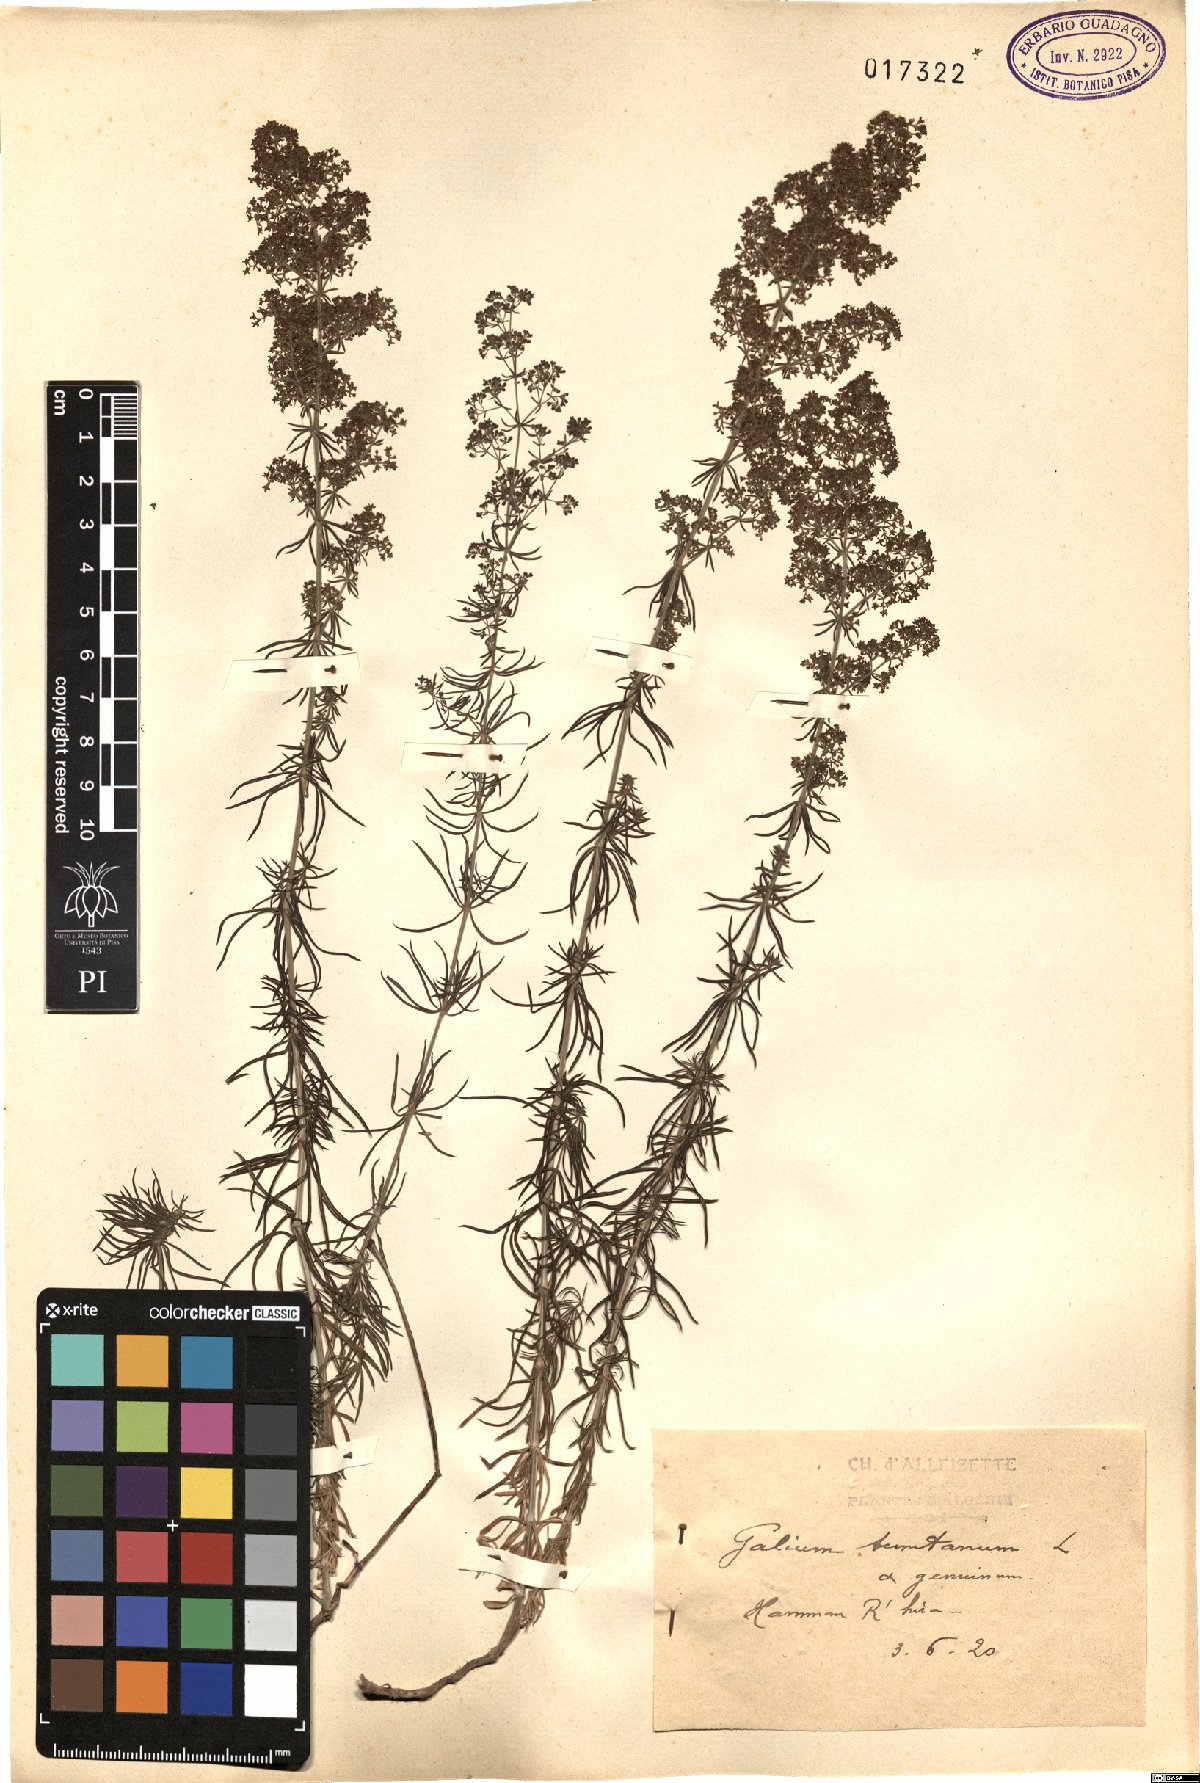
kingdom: Plantae
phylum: Tracheophyta
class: Magnoliopsida
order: Gentianales
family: Rubiaceae
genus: Galium
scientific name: Galium tunetanum
